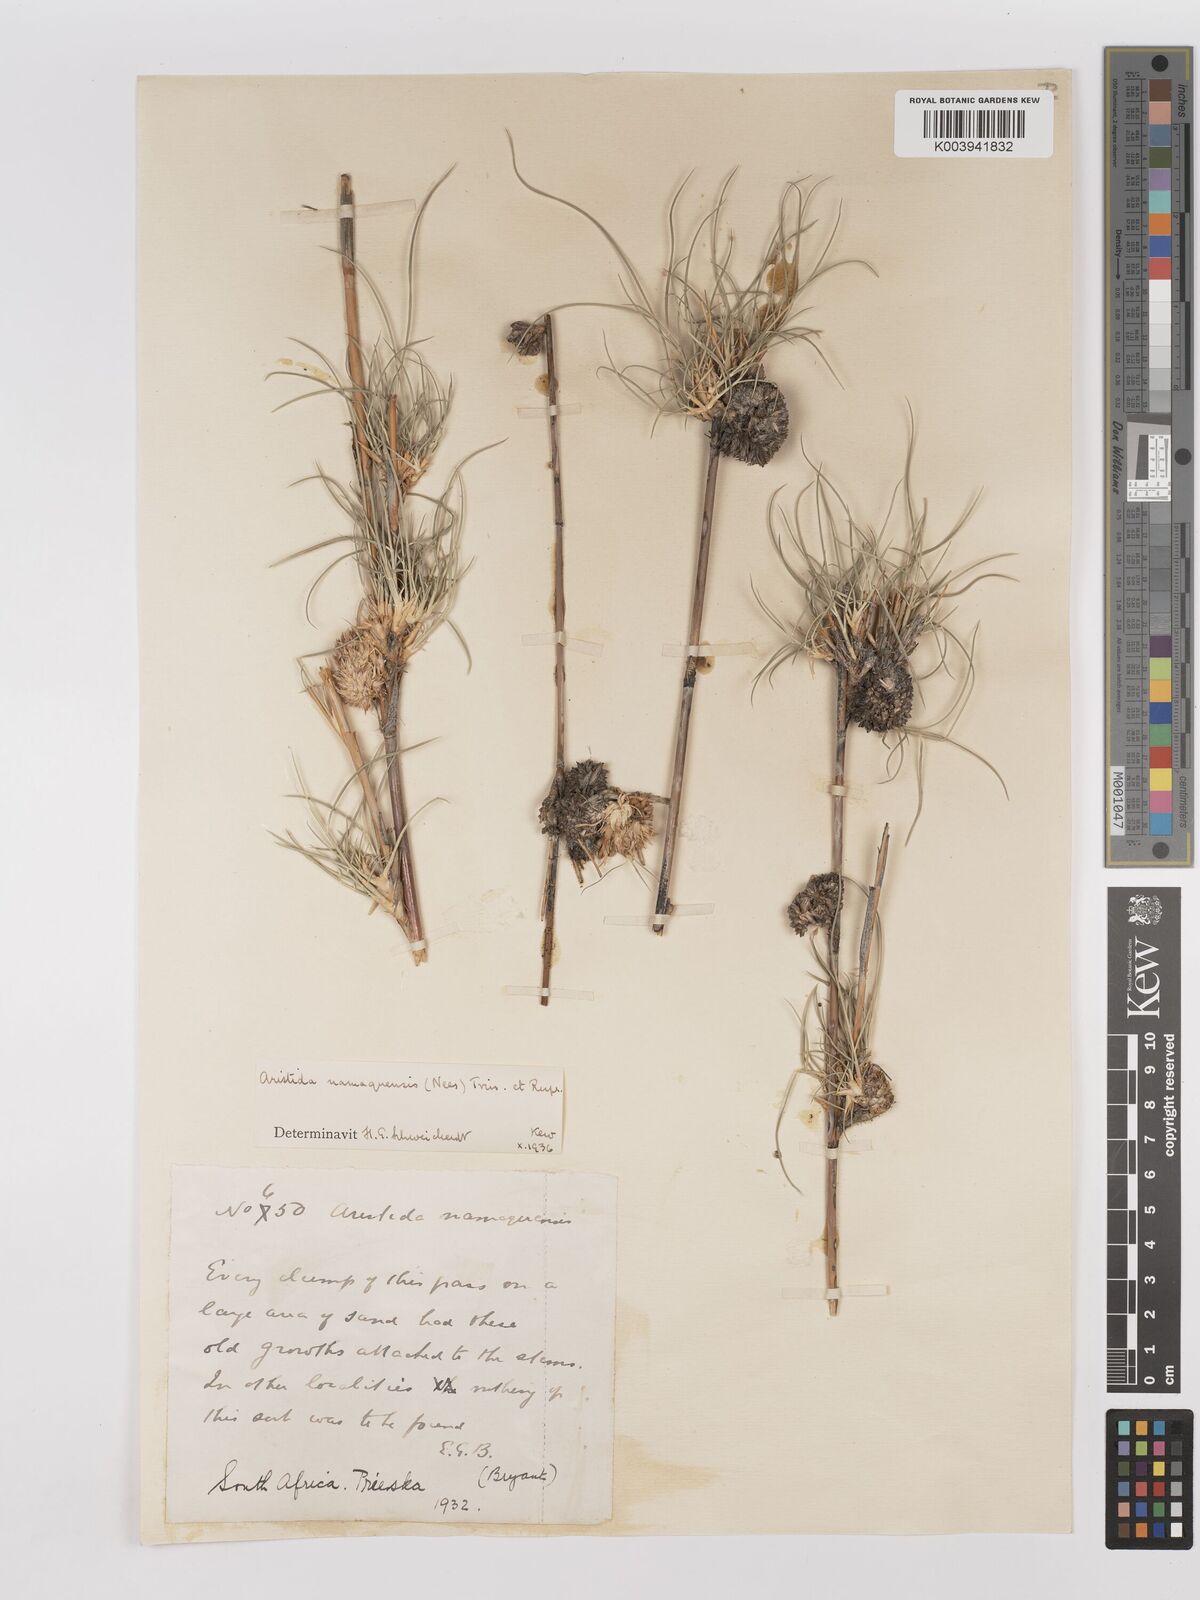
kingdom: Plantae
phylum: Tracheophyta
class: Liliopsida
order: Poales
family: Poaceae
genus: Stipagrostis
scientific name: Stipagrostis namaquensis
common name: River bushman grass
